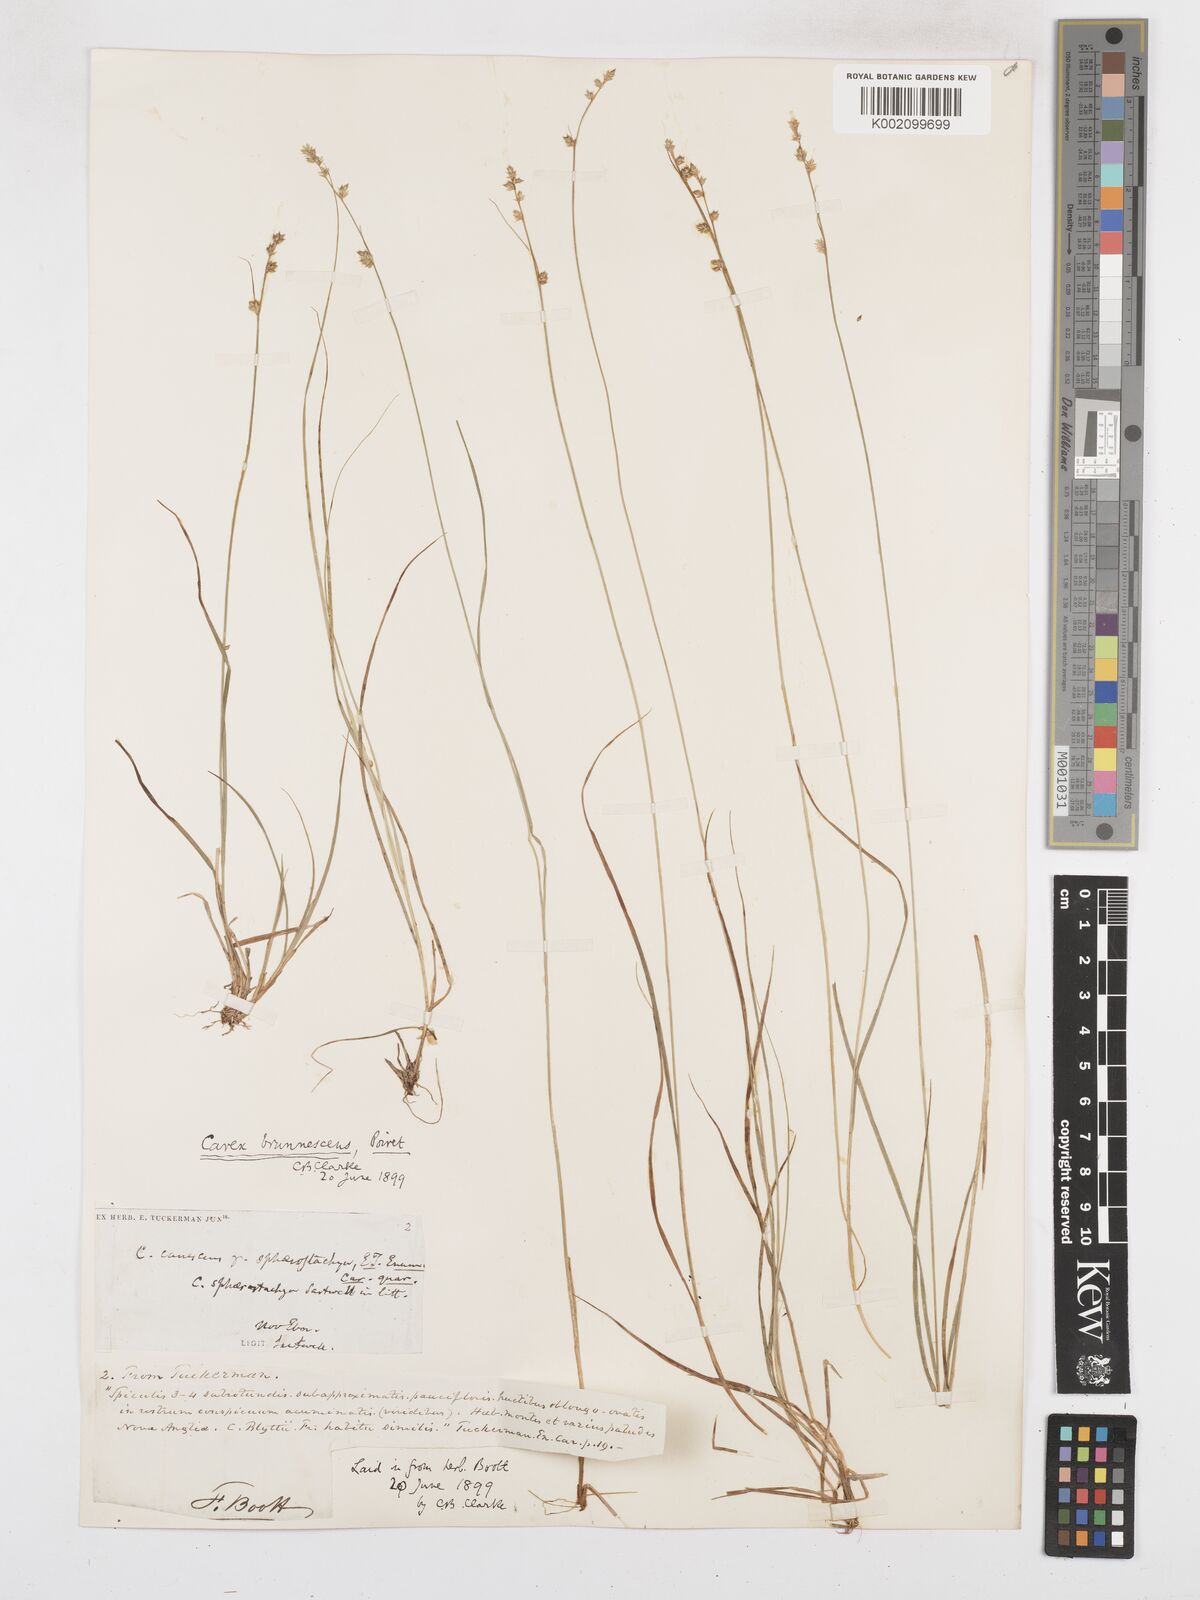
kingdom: Plantae
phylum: Tracheophyta
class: Liliopsida
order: Poales
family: Cyperaceae
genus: Carex
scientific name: Carex brunnescens
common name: Brown sedge
